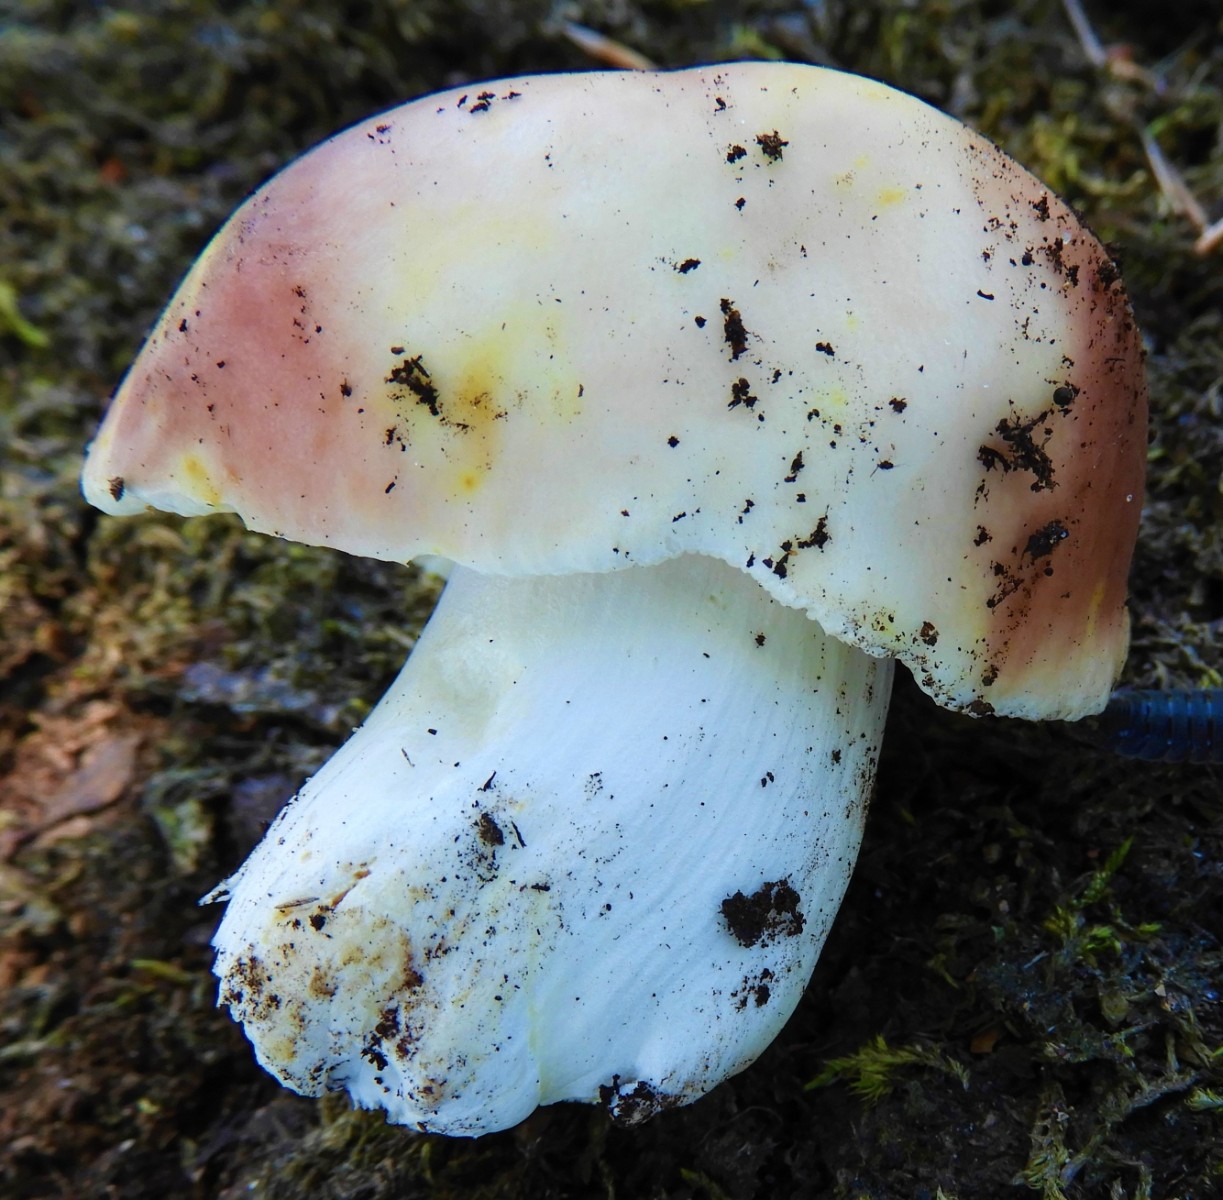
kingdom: Fungi
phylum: Basidiomycota
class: Agaricomycetes
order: Russulales
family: Russulaceae
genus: Russula
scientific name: Russula vesca
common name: spiselig skørhat
